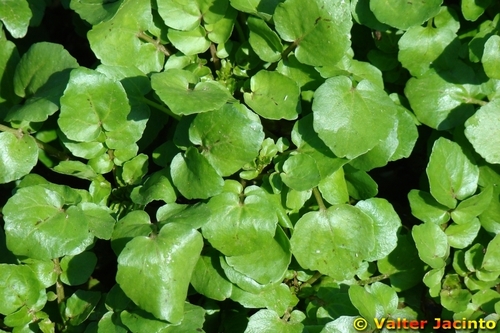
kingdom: Plantae
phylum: Tracheophyta
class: Magnoliopsida
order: Brassicales
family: Brassicaceae
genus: Nasturtium
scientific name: Nasturtium officinale
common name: Watercress
